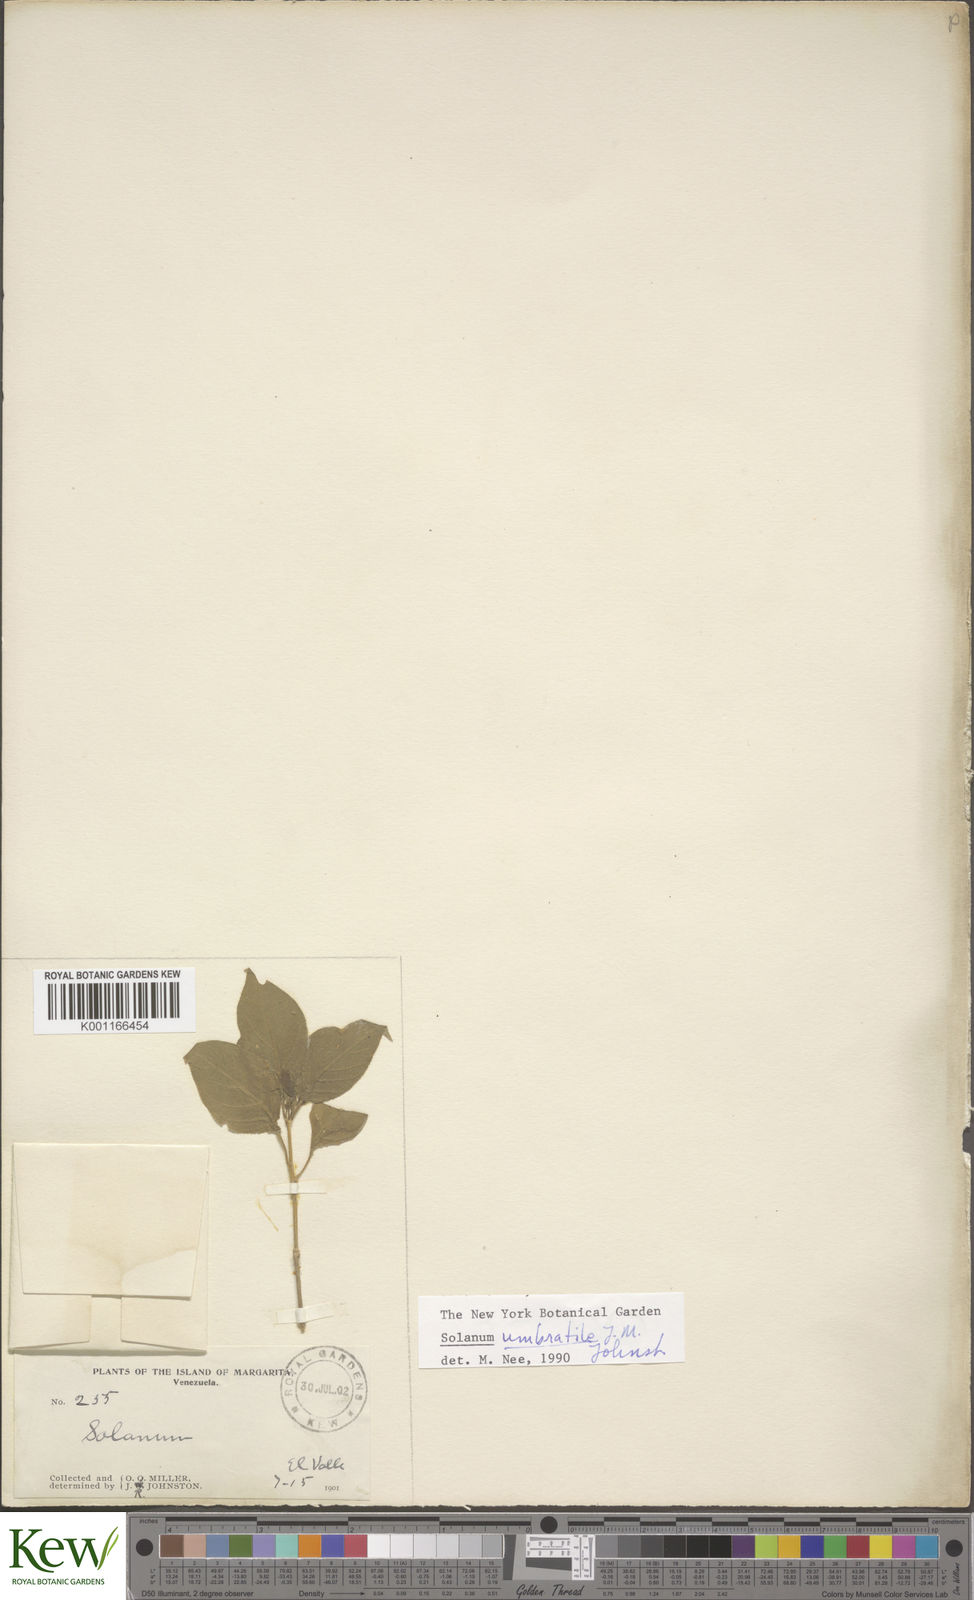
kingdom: Plantae
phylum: Tracheophyta
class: Magnoliopsida
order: Solanales
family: Solanaceae
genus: Solanum
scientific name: Solanum cordovense
